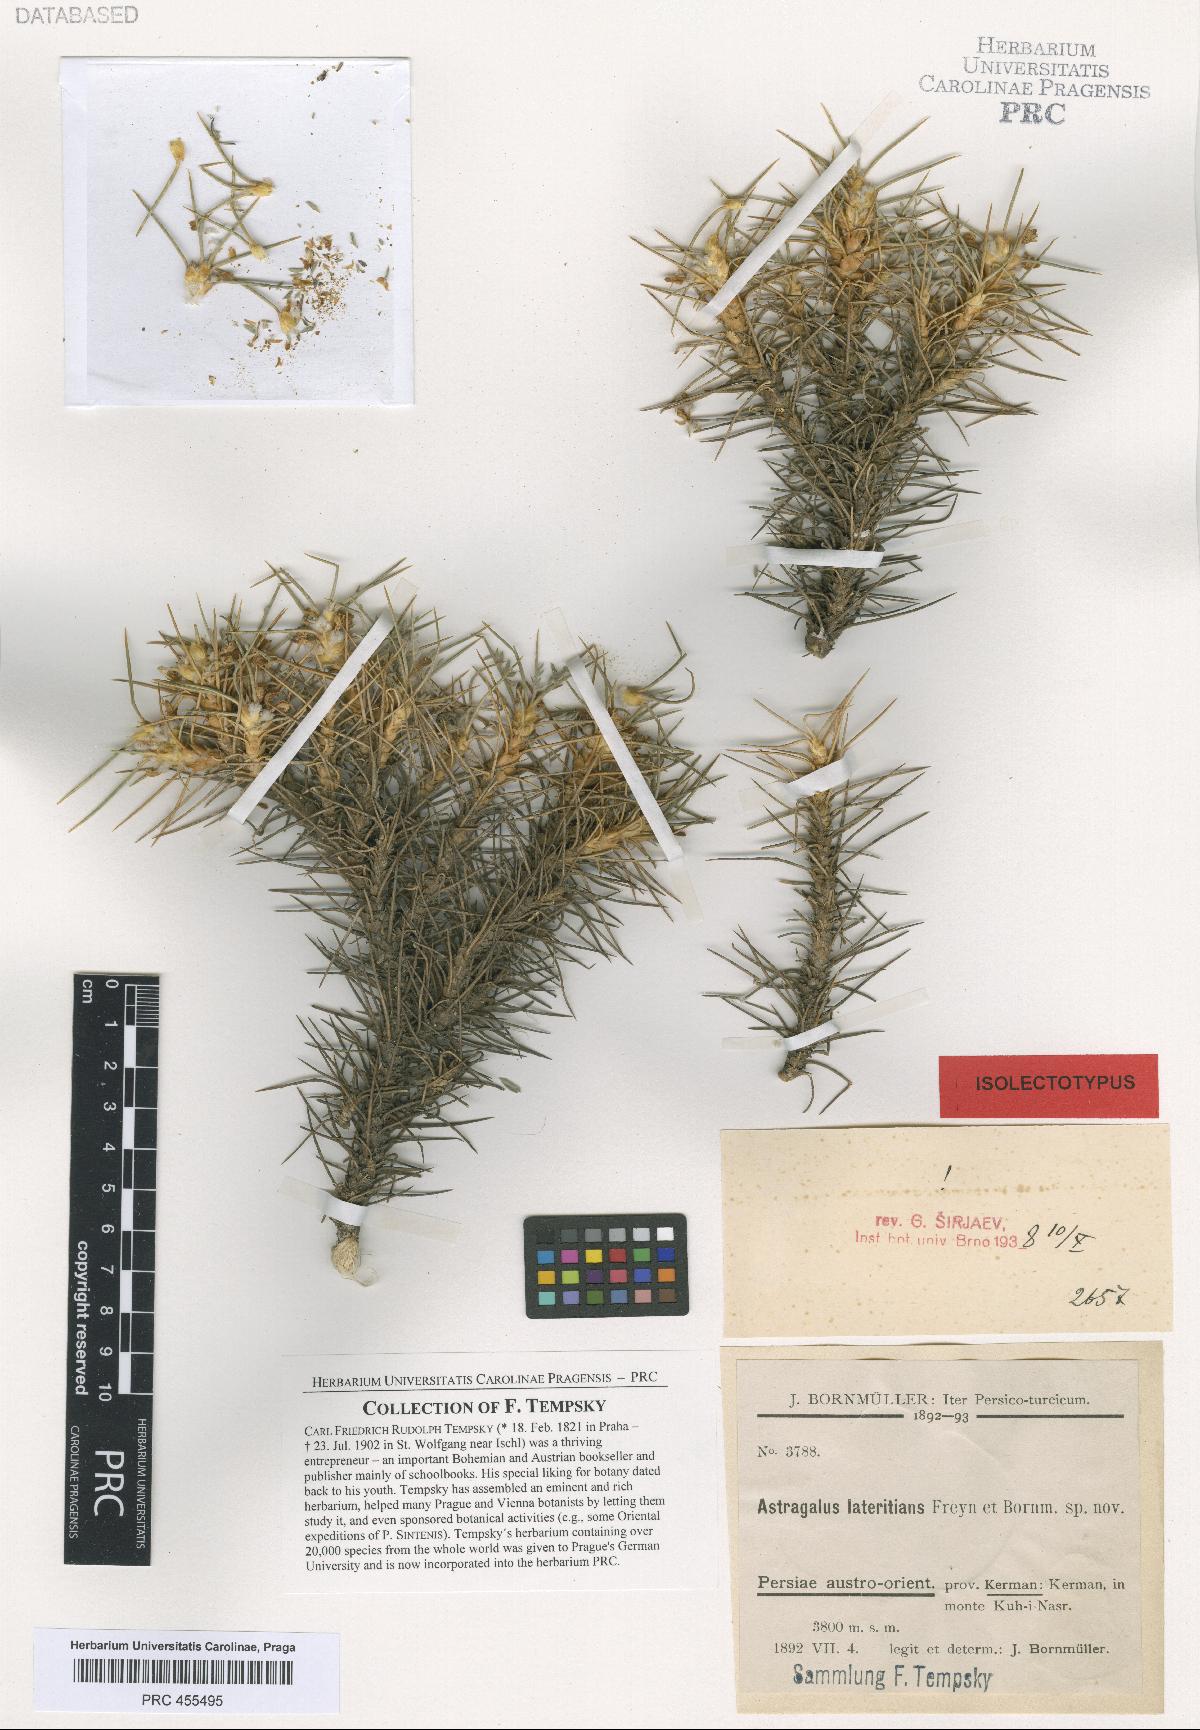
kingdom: Plantae
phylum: Tracheophyta
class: Magnoliopsida
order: Fabales
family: Fabaceae
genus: Astragalus
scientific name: Astragalus myriacanthus
